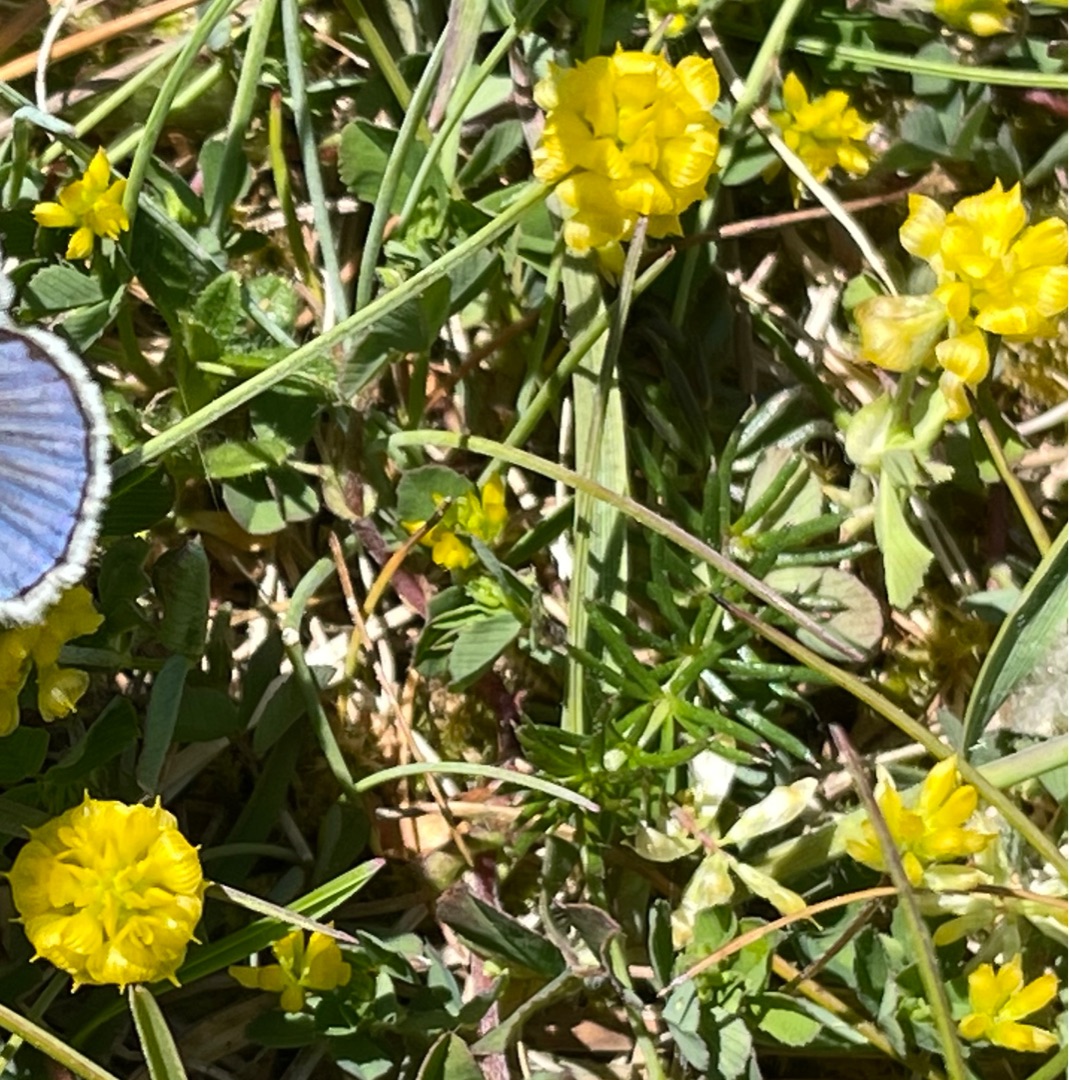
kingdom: Plantae
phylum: Tracheophyta
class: Magnoliopsida
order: Fabales
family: Fabaceae
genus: Trifolium
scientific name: Trifolium campestre
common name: Gul kløver
